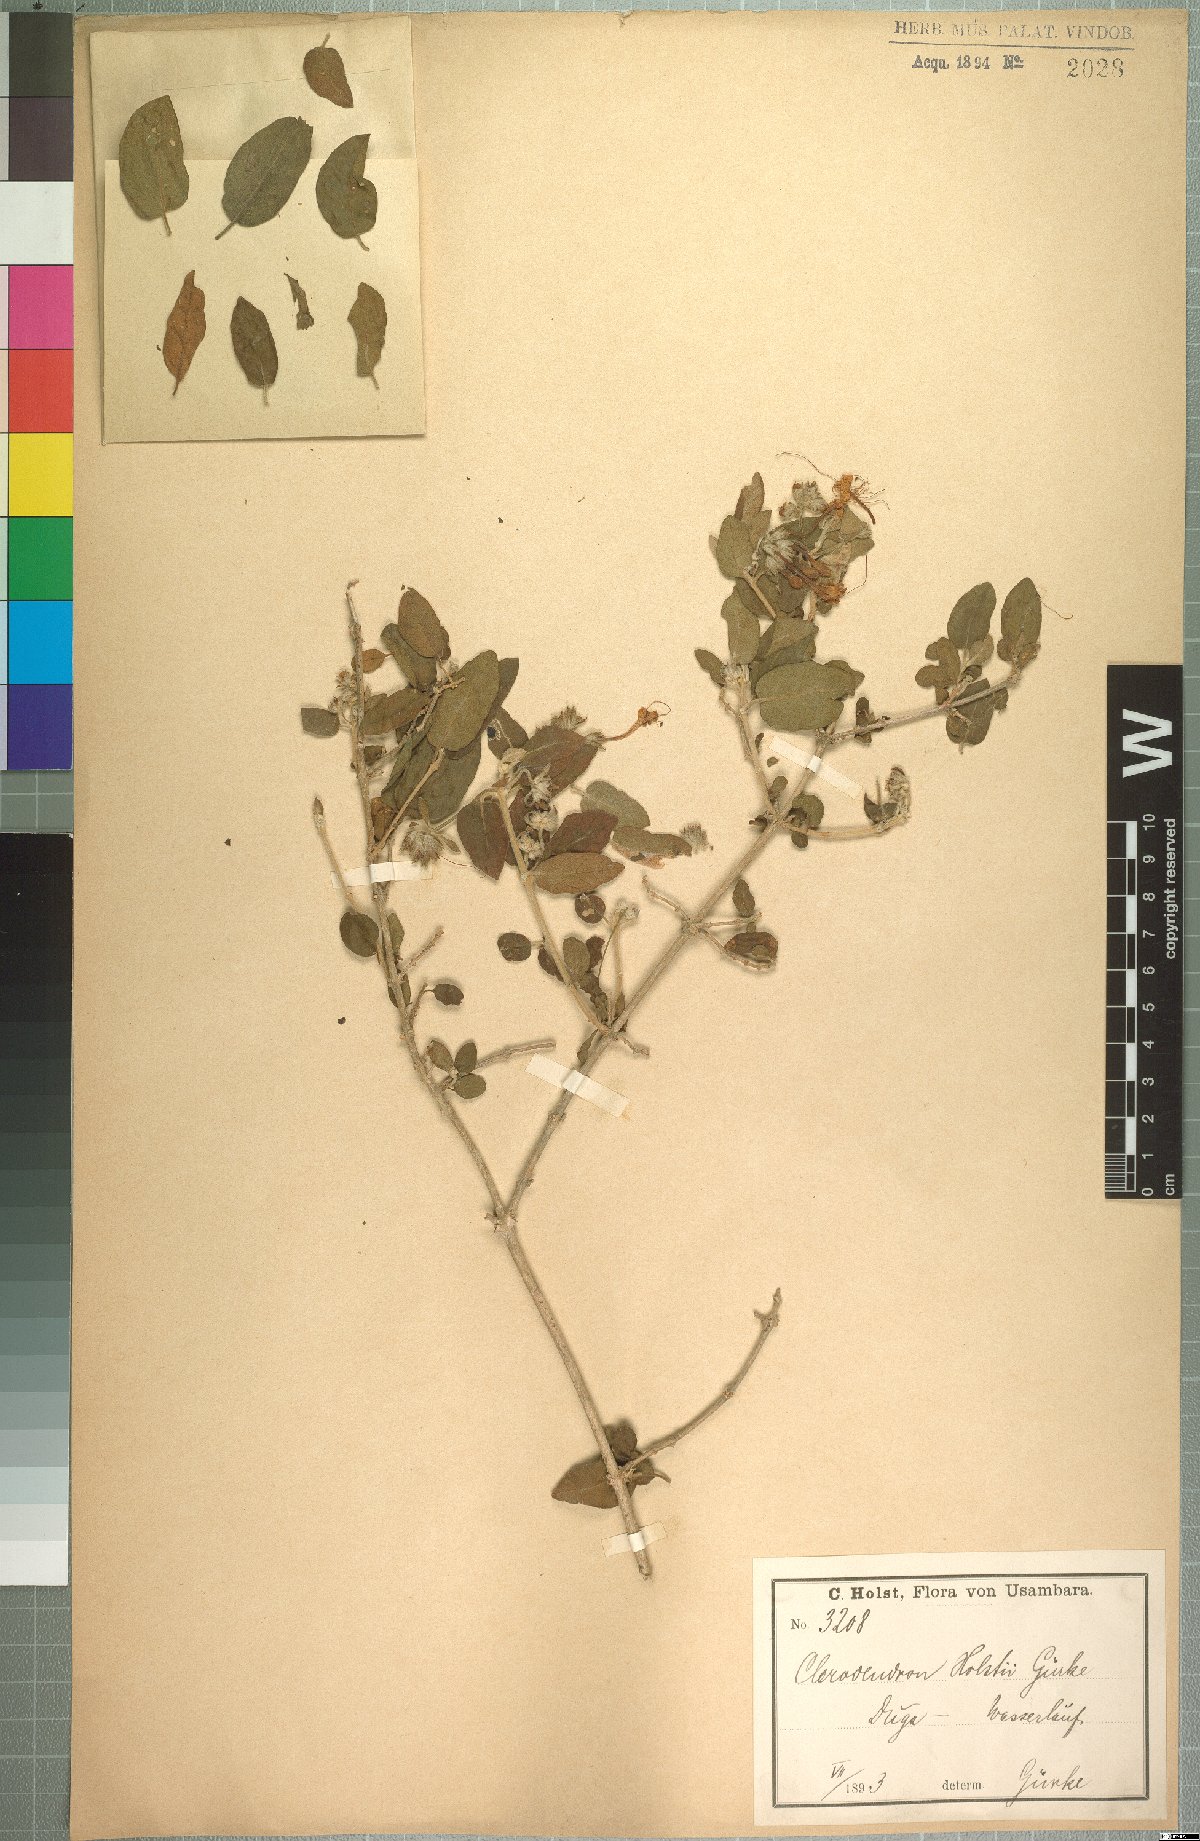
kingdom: Plantae
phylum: Tracheophyta
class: Magnoliopsida
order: Lamiales
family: Lamiaceae
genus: Volkameria
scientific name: Volkameria acerbiana
